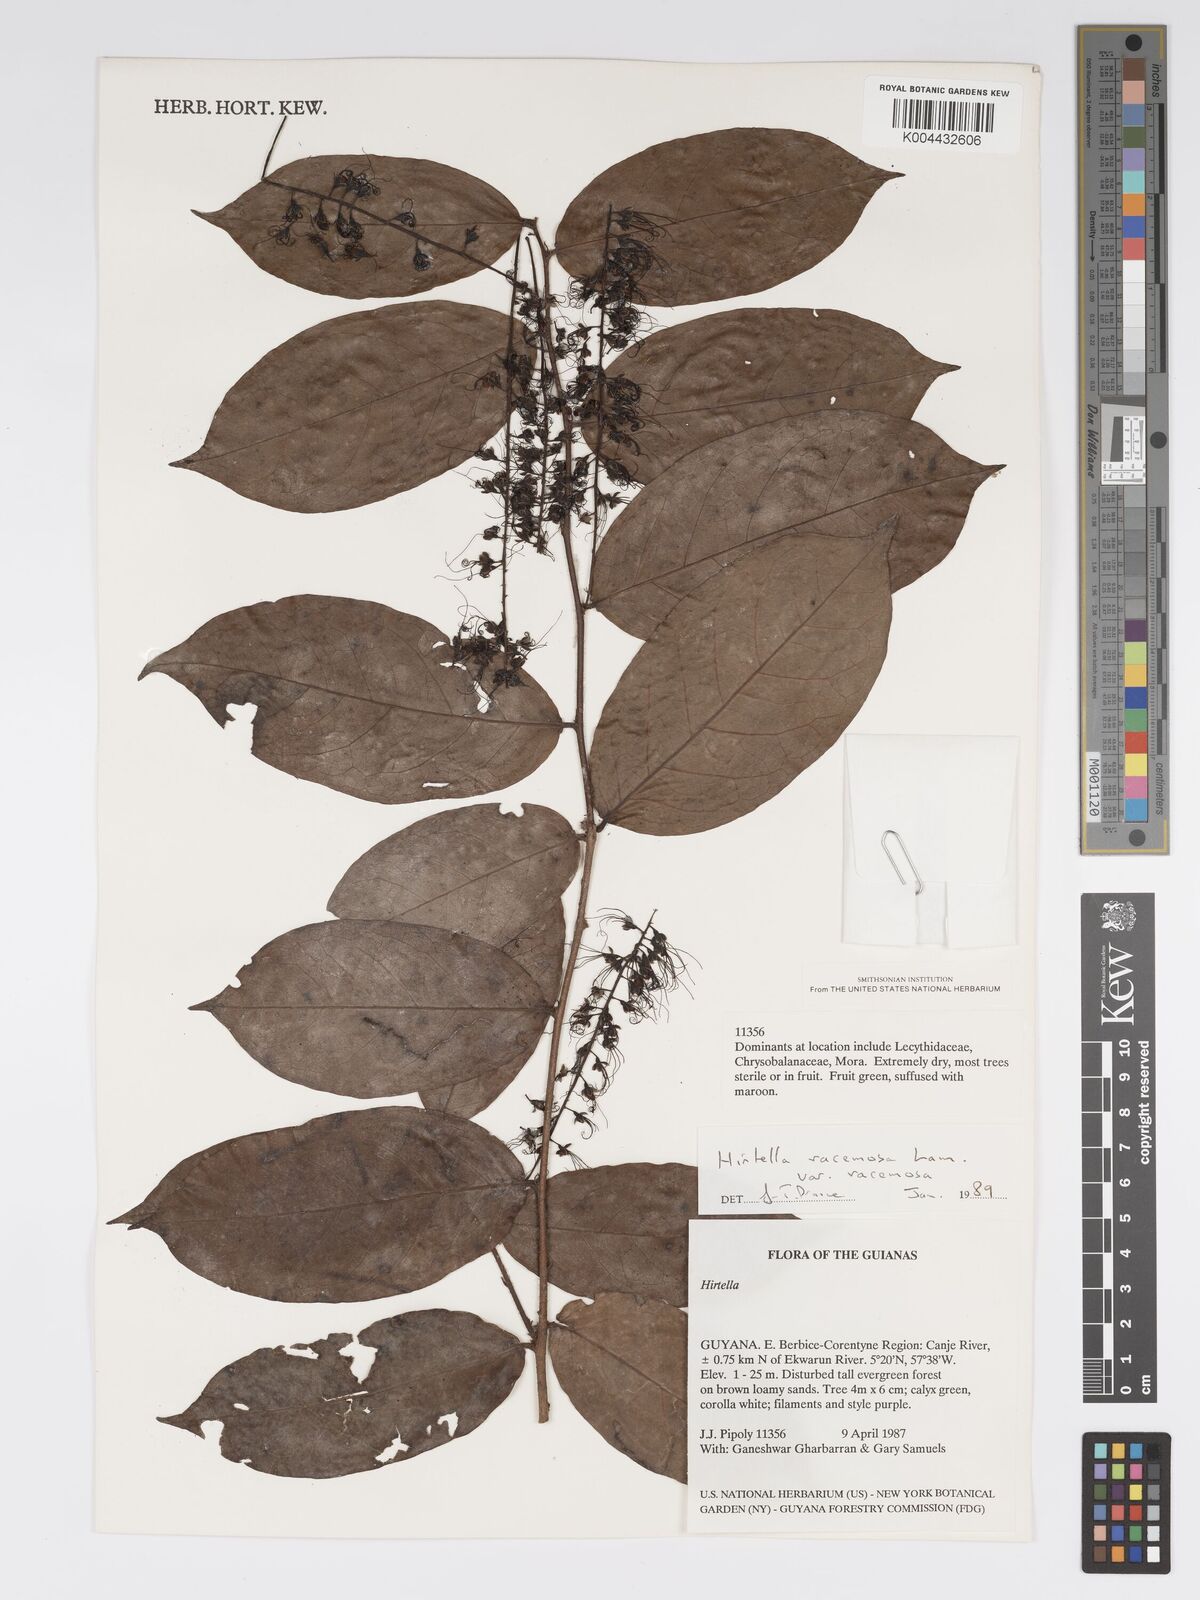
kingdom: Plantae
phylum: Tracheophyta
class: Magnoliopsida
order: Malpighiales
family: Chrysobalanaceae
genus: Hirtella
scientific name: Hirtella racemosa
